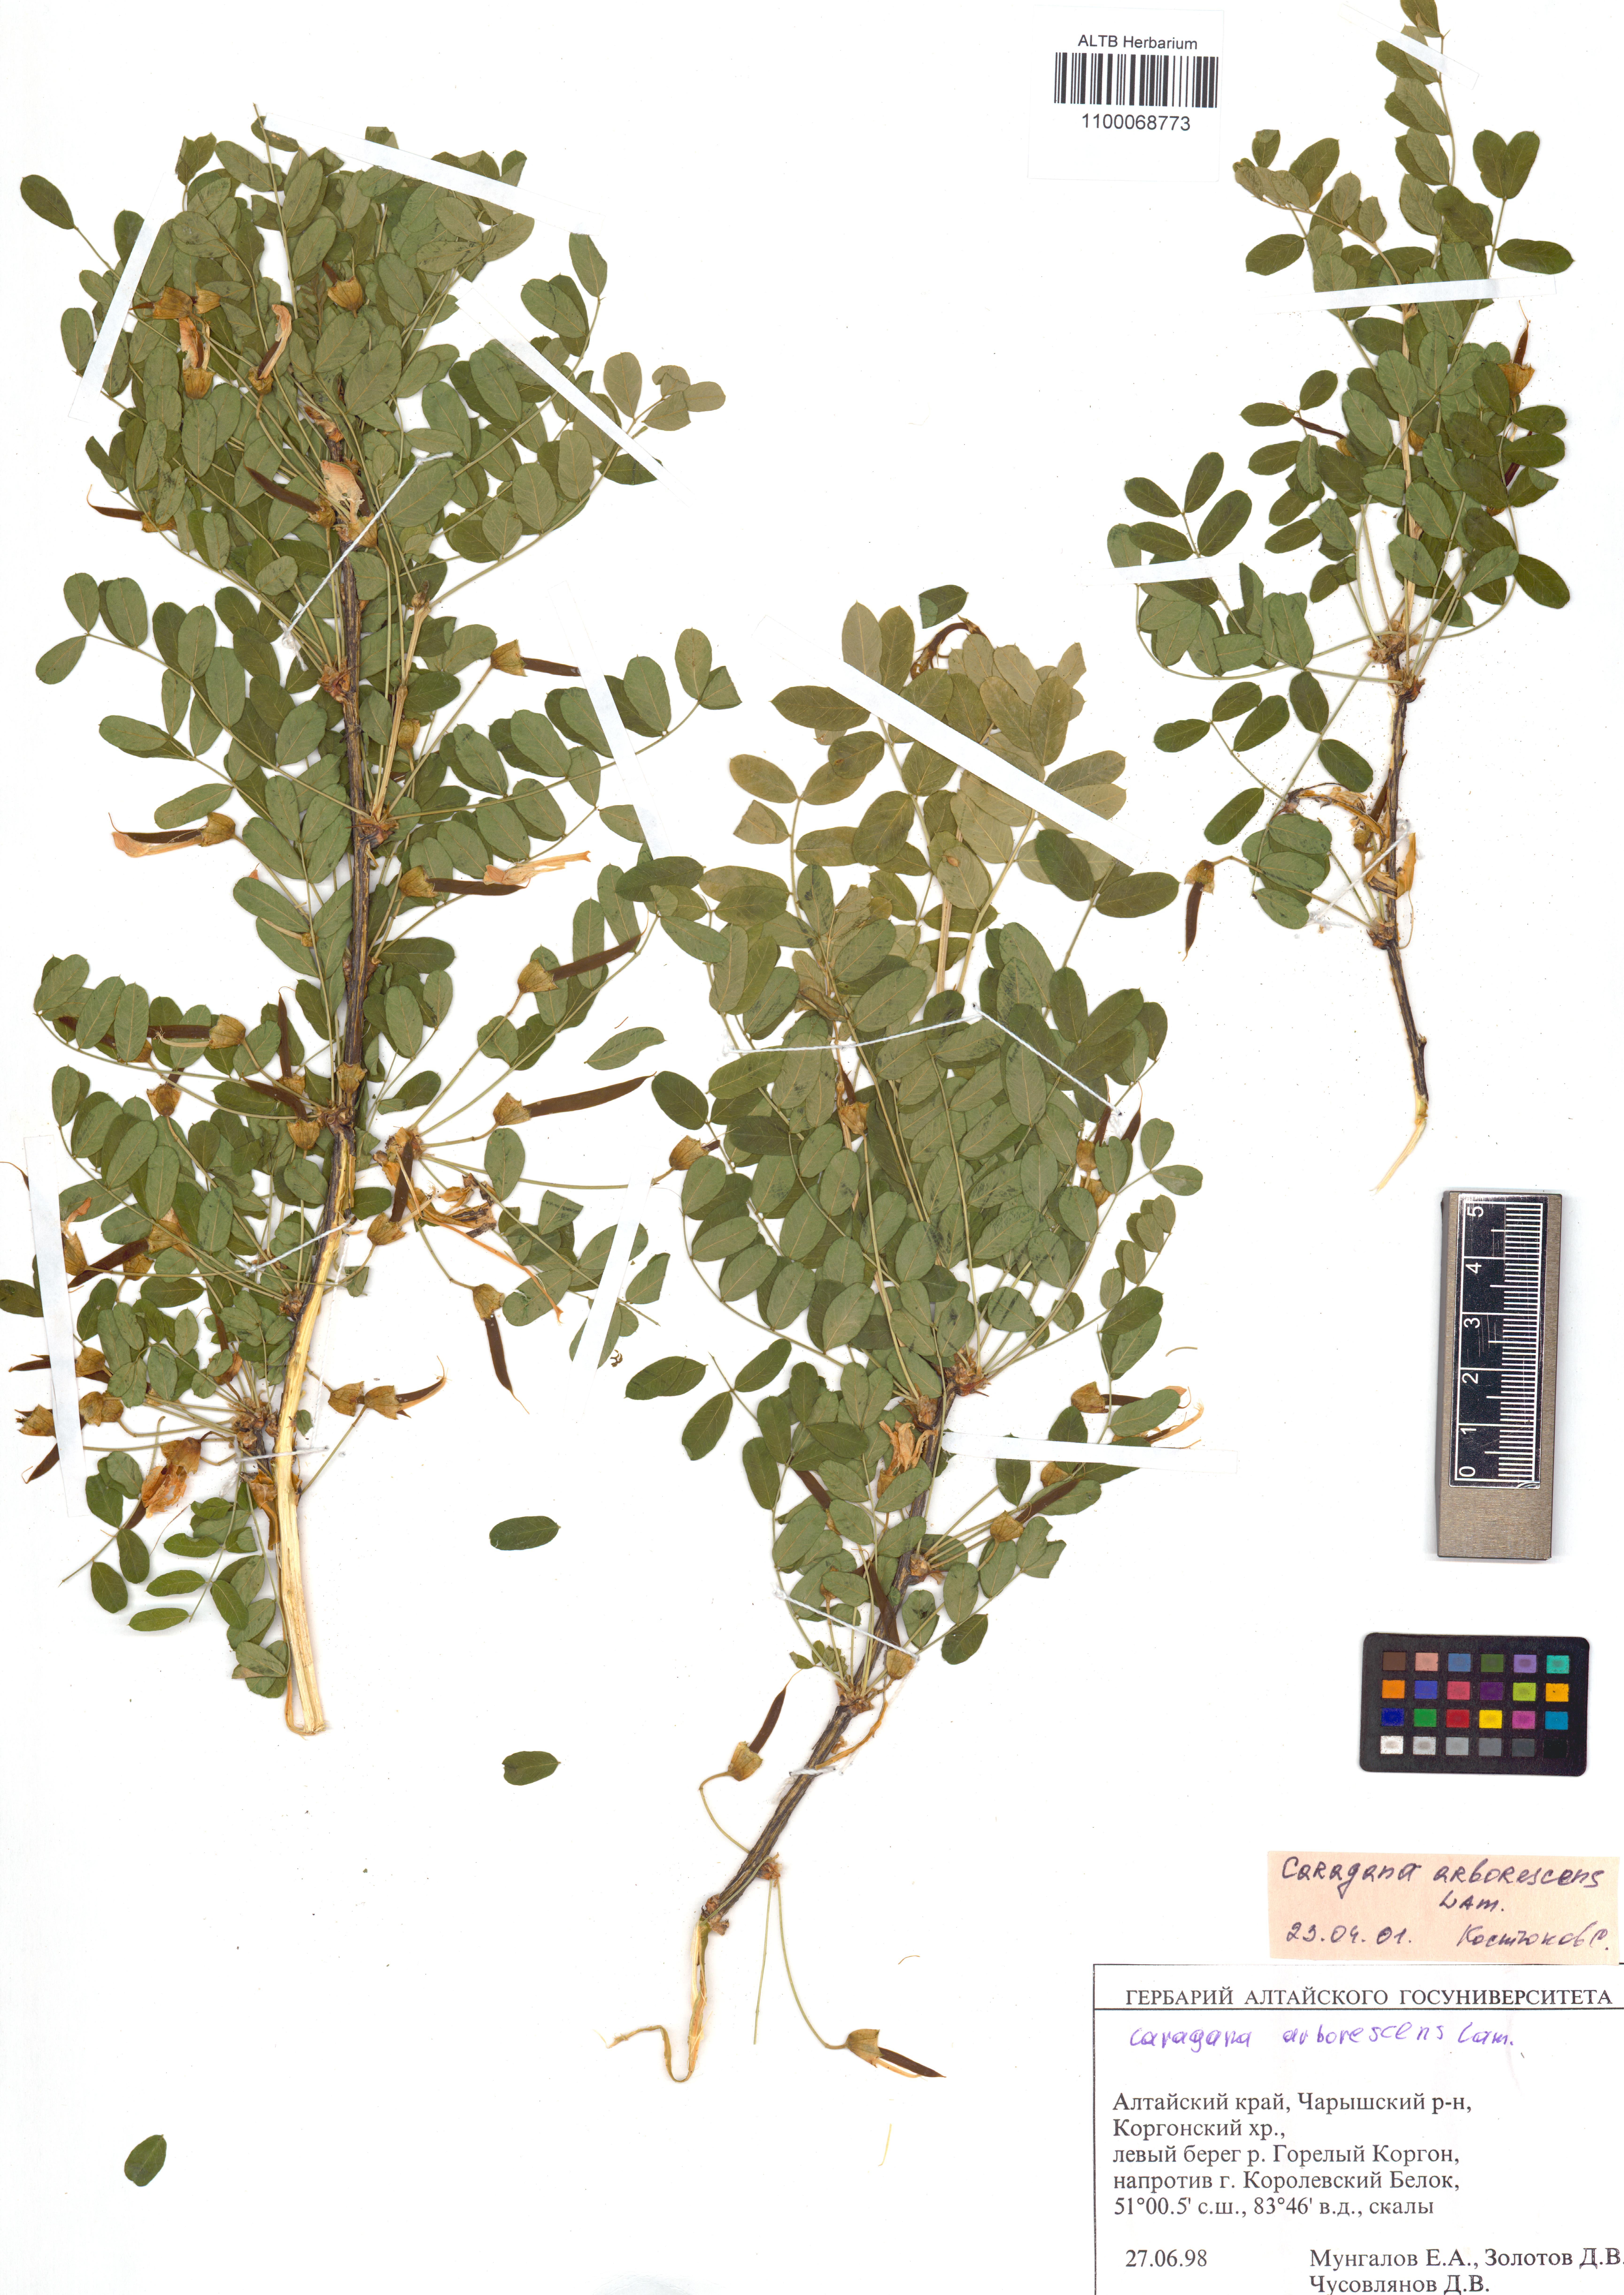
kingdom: Plantae
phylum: Tracheophyta
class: Magnoliopsida
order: Fabales
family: Fabaceae
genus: Caragana
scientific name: Caragana arborescens
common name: Siberian peashrub
